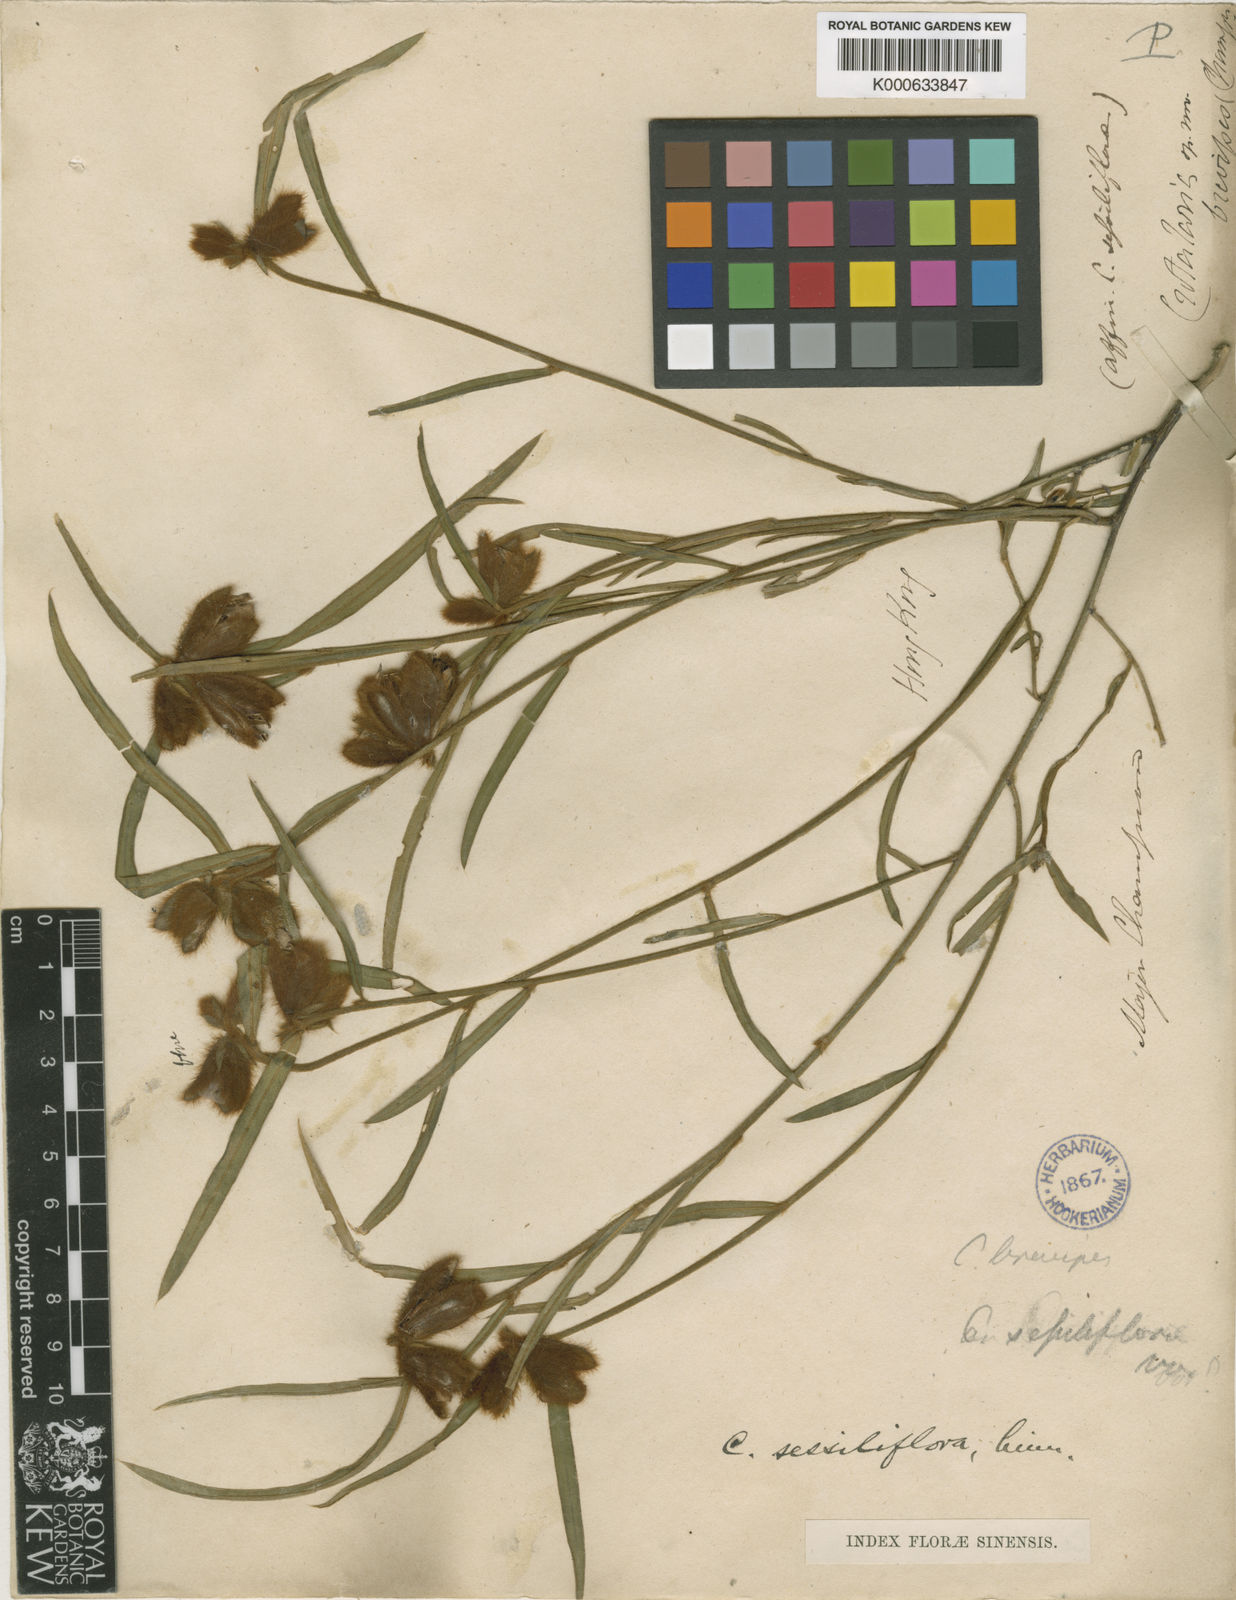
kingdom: Plantae
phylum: Tracheophyta
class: Magnoliopsida
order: Fabales
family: Fabaceae
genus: Crotalaria
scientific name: Crotalaria sessiliflora
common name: Rattlebox
